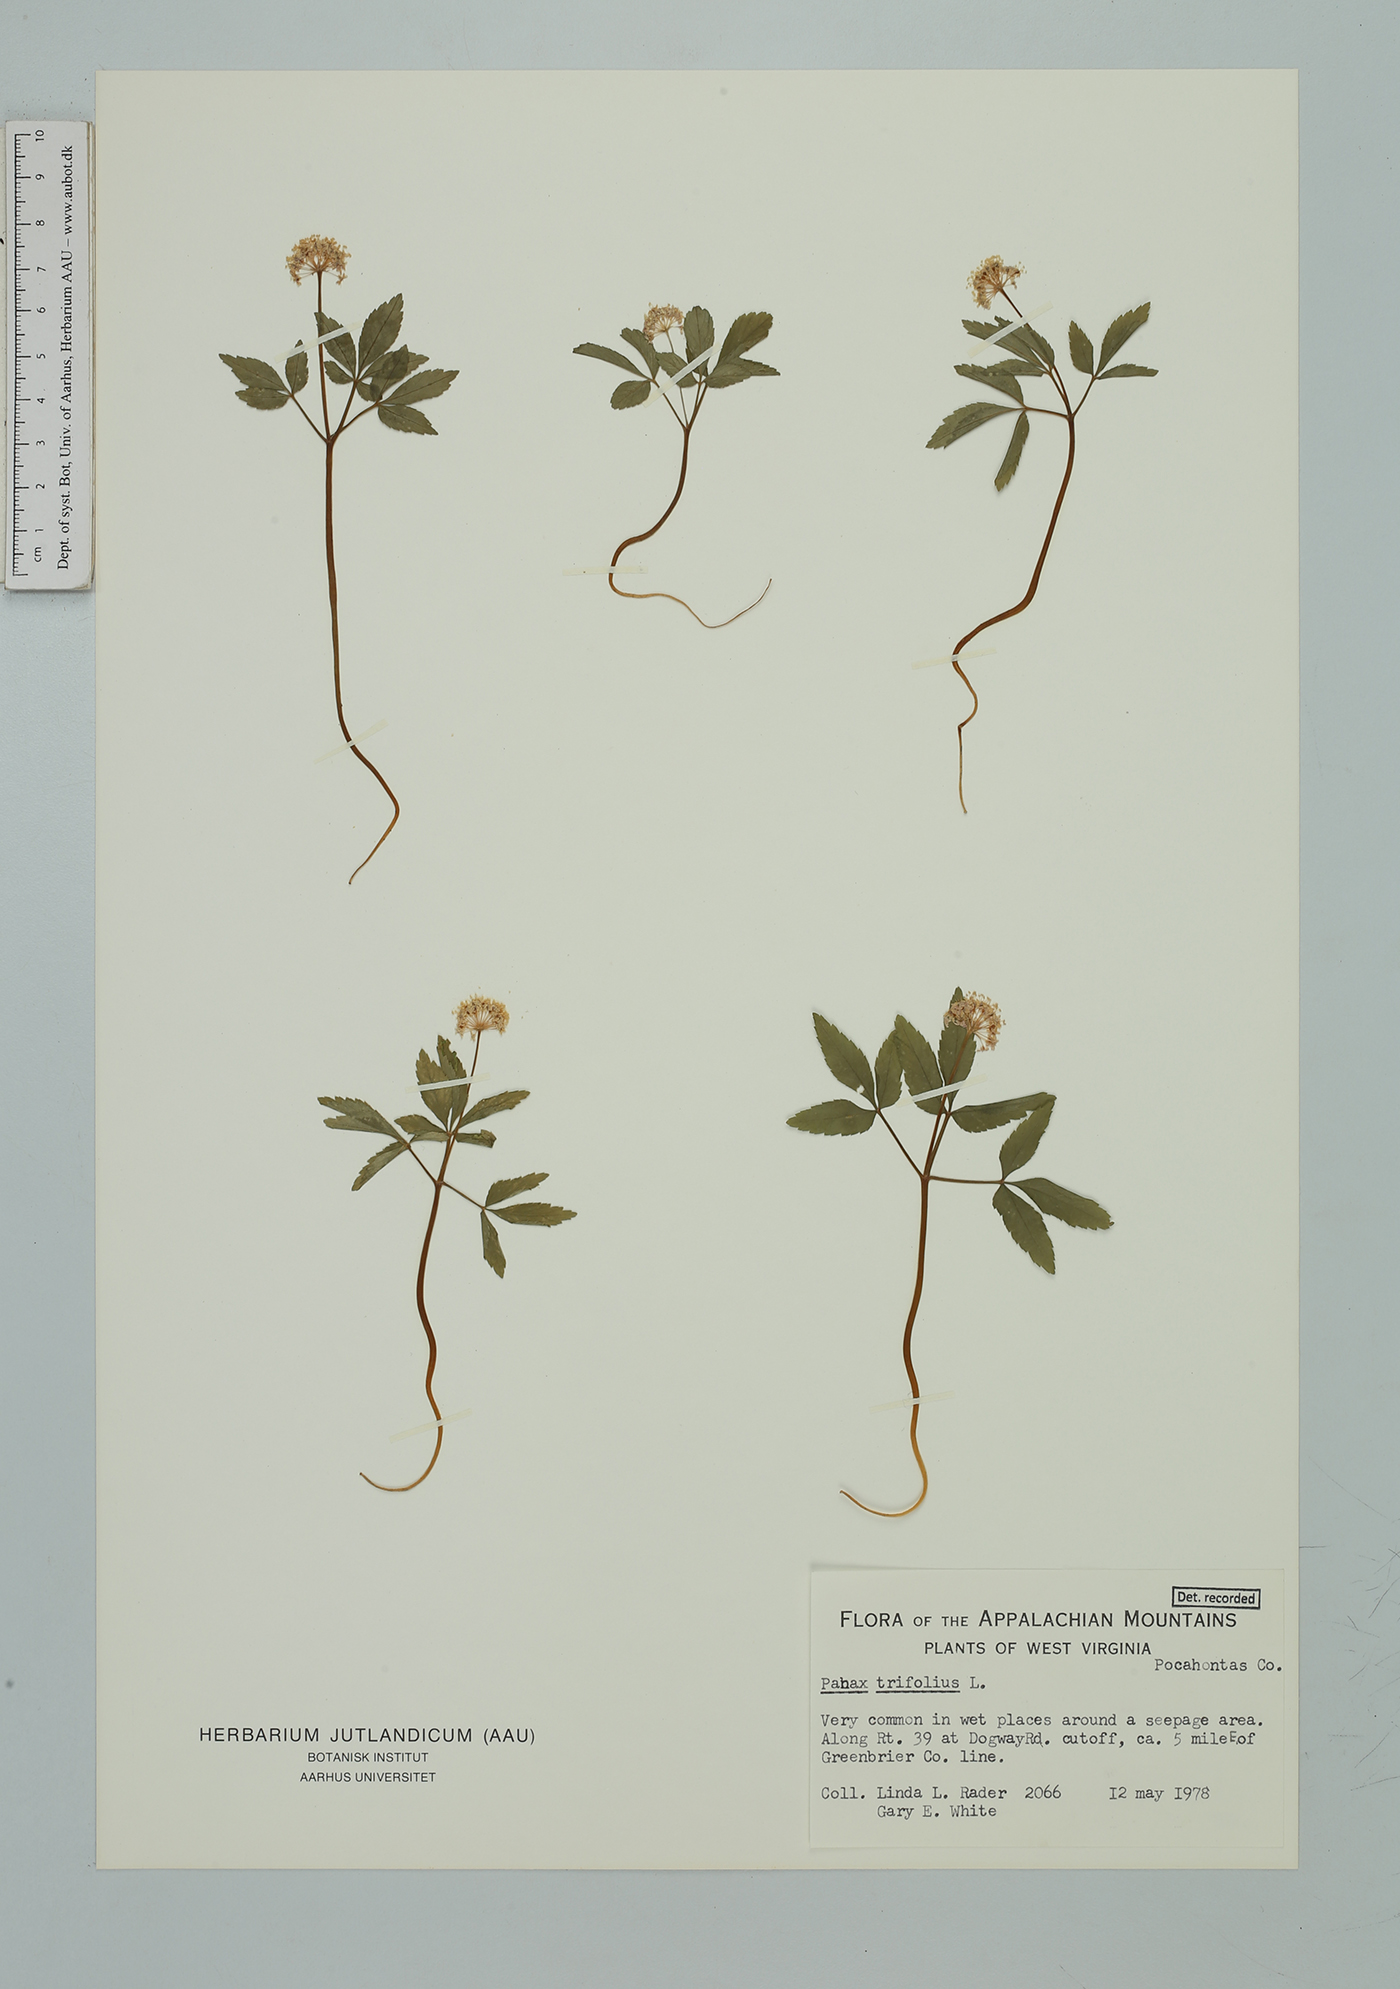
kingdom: Plantae
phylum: Tracheophyta
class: Magnoliopsida
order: Apiales
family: Araliaceae
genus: Panax
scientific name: Panax trifolius
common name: Dwarf ginseng
